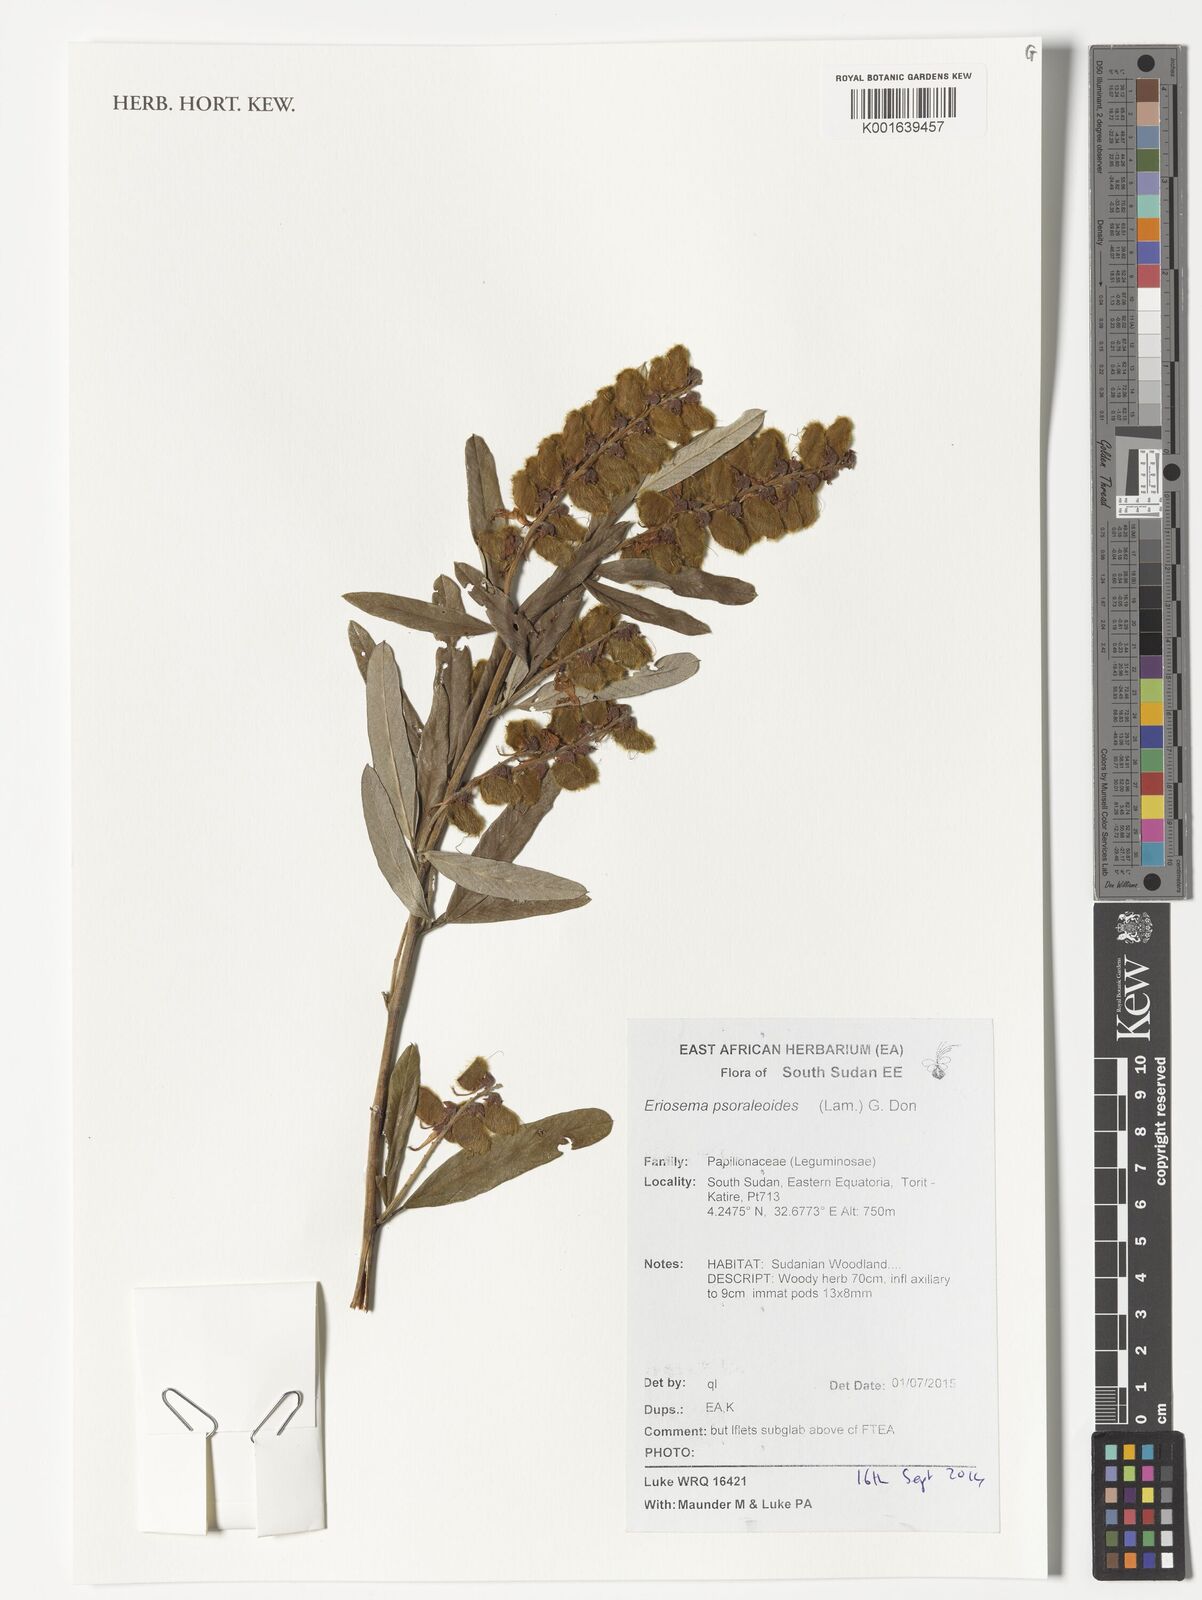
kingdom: Plantae
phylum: Tracheophyta
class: Magnoliopsida
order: Fabales
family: Fabaceae
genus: Eriosema
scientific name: Eriosema psoraleoides
